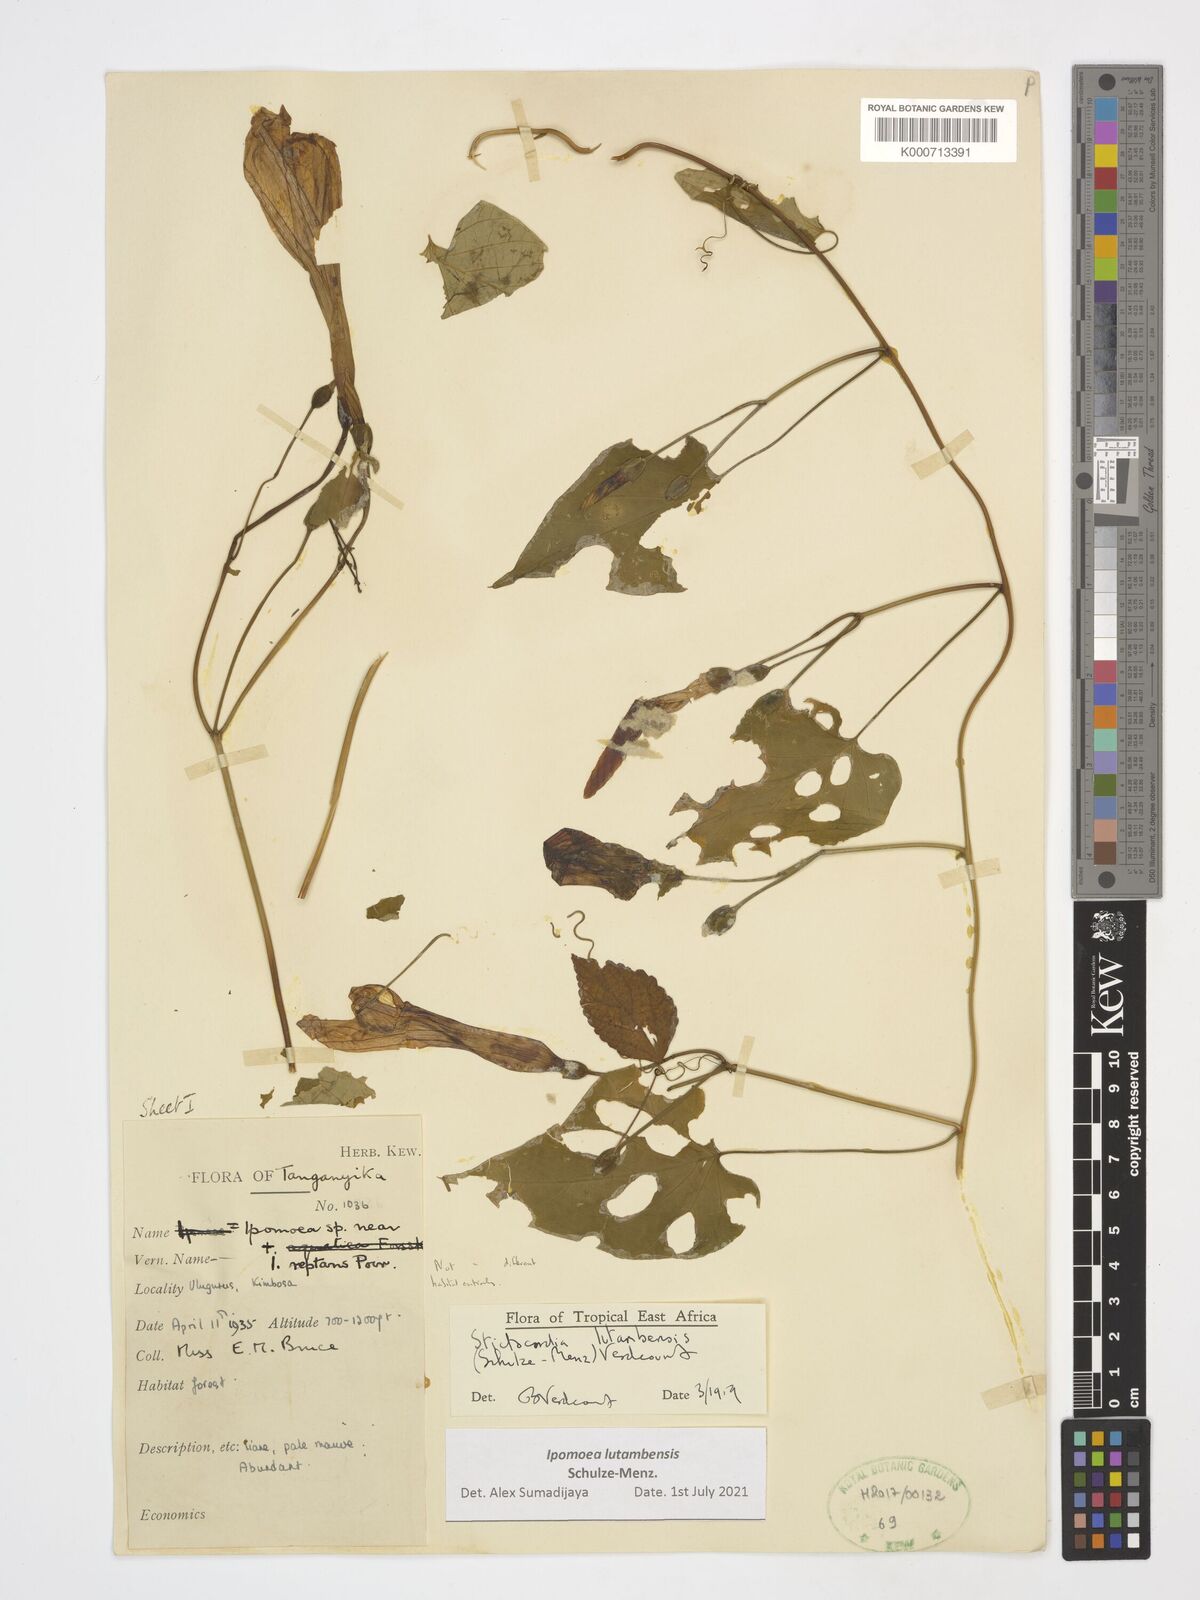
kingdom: Plantae
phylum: Tracheophyta
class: Magnoliopsida
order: Solanales
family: Convolvulaceae
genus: Stictocardia
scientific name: Stictocardia lutambensis
